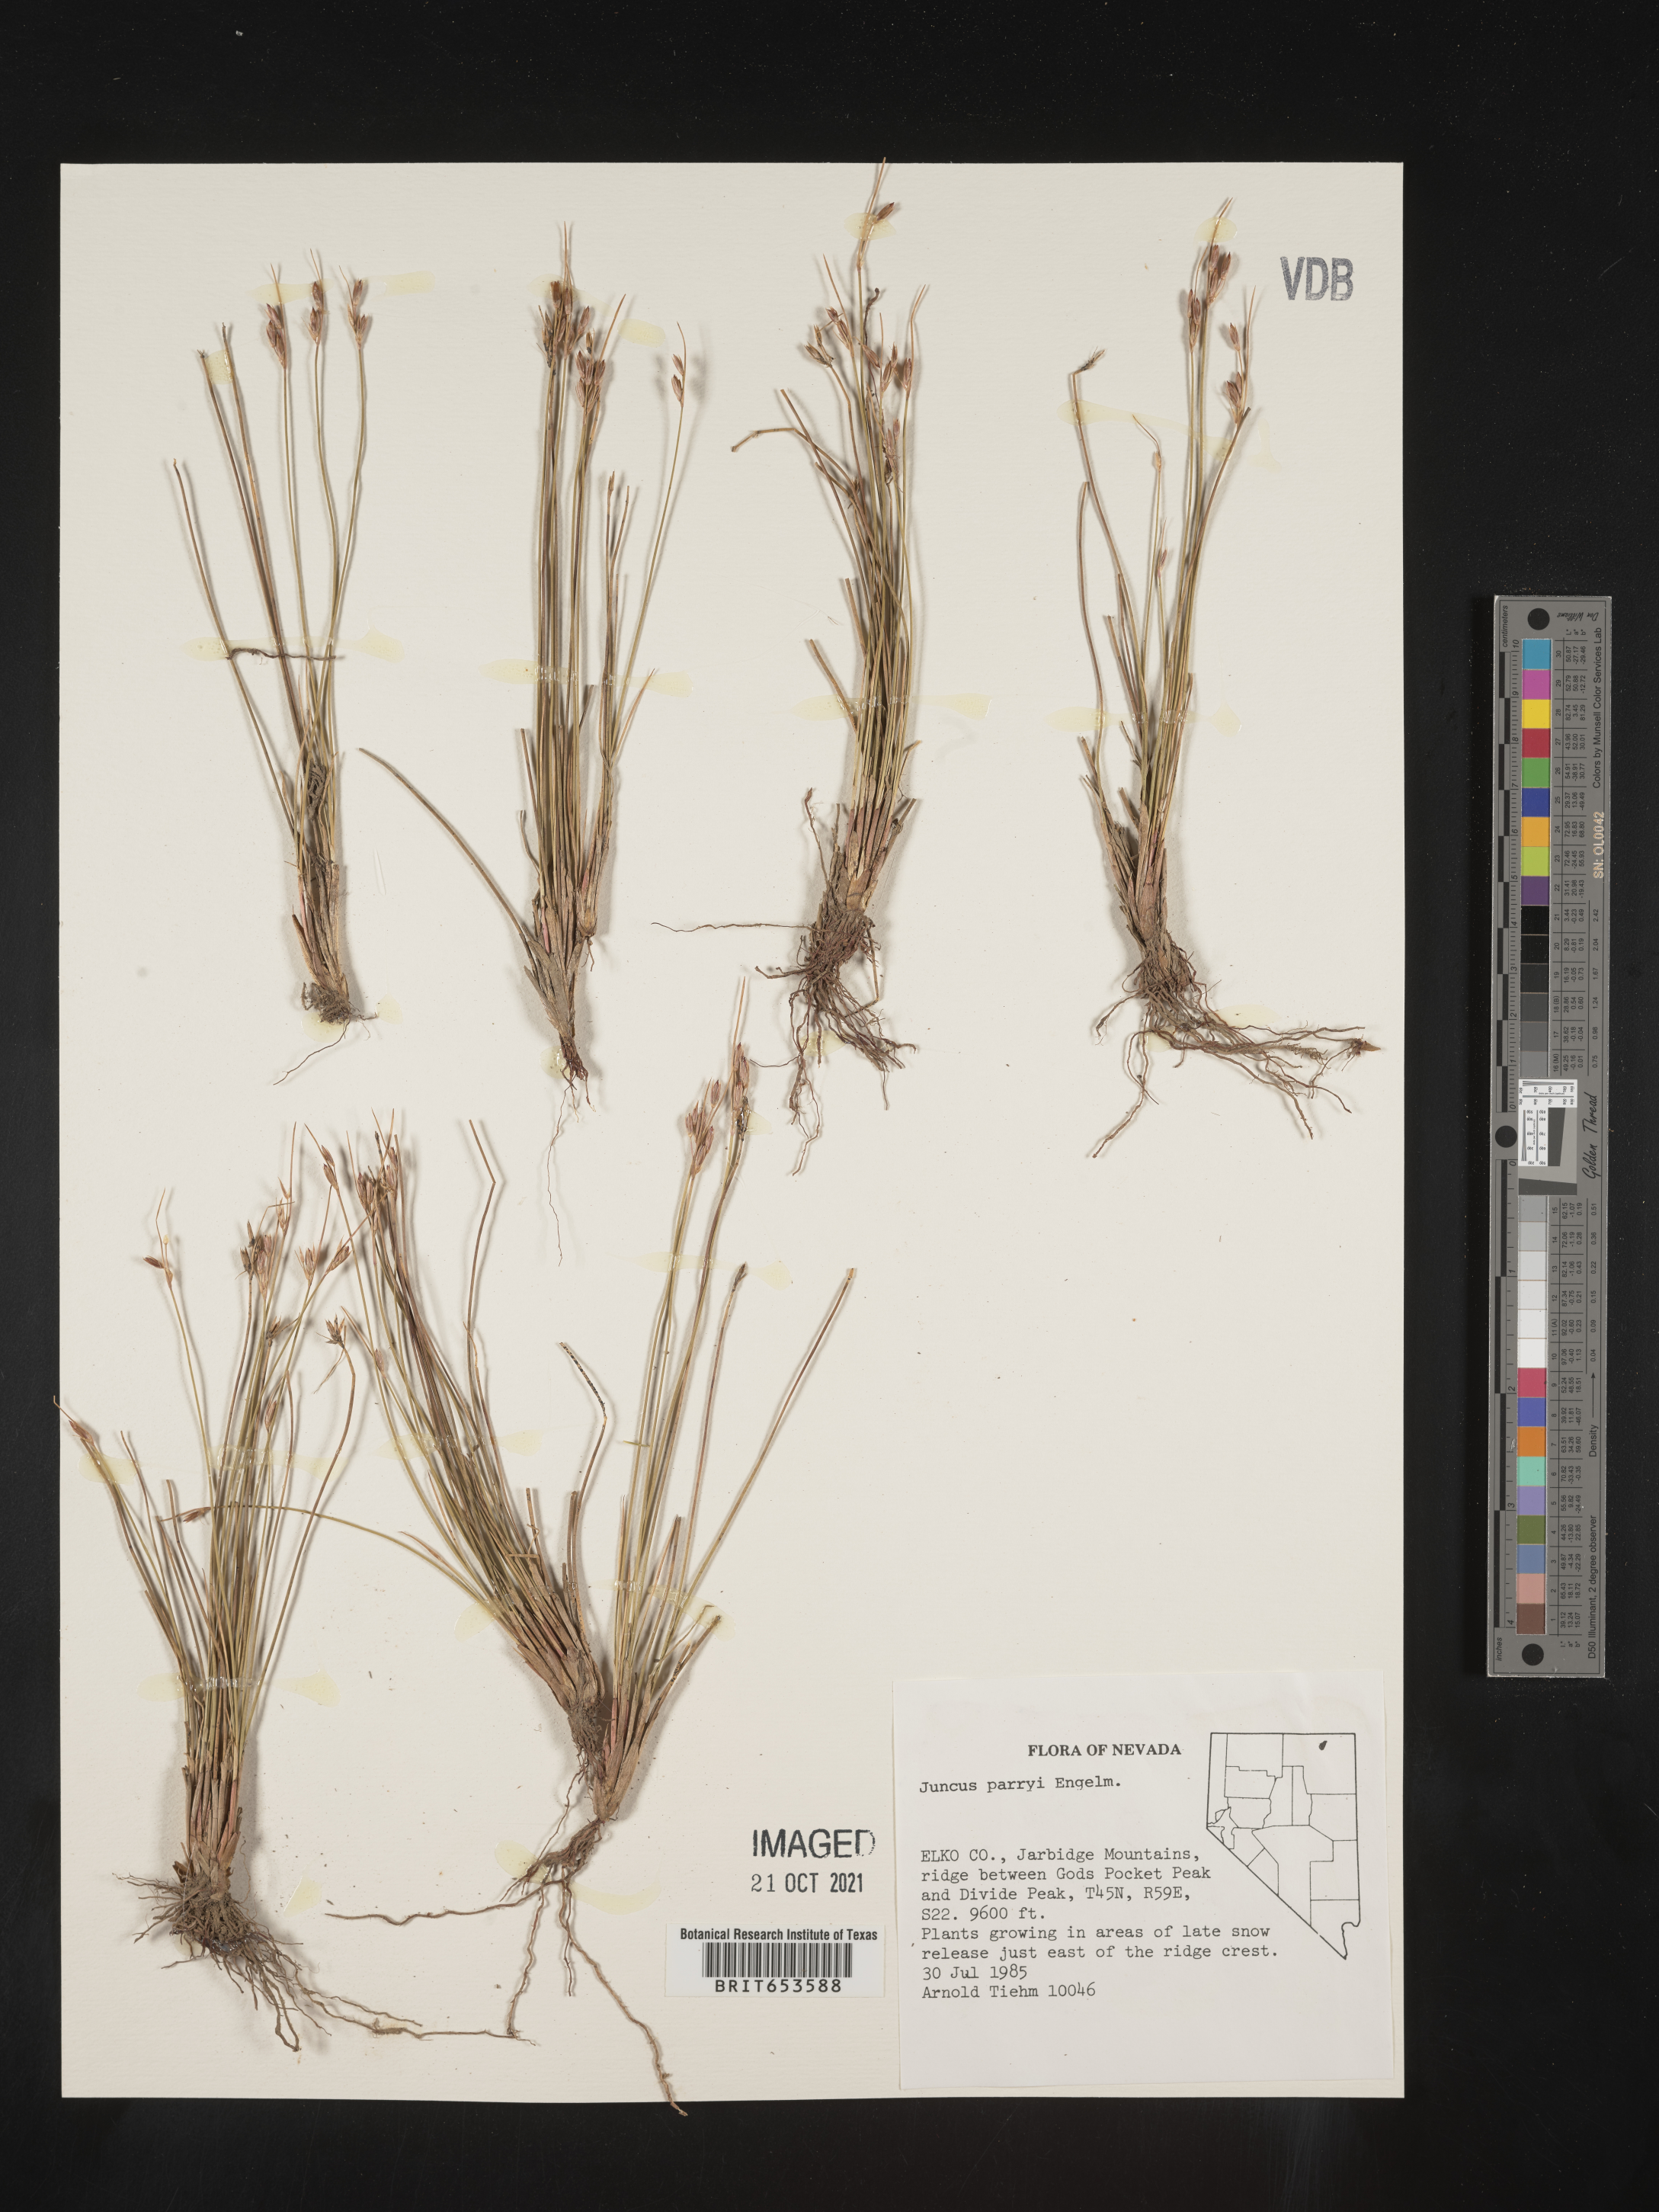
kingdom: Plantae
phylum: Tracheophyta
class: Liliopsida
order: Poales
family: Juncaceae
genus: Juncus
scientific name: Juncus parryi
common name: Parry's rush
